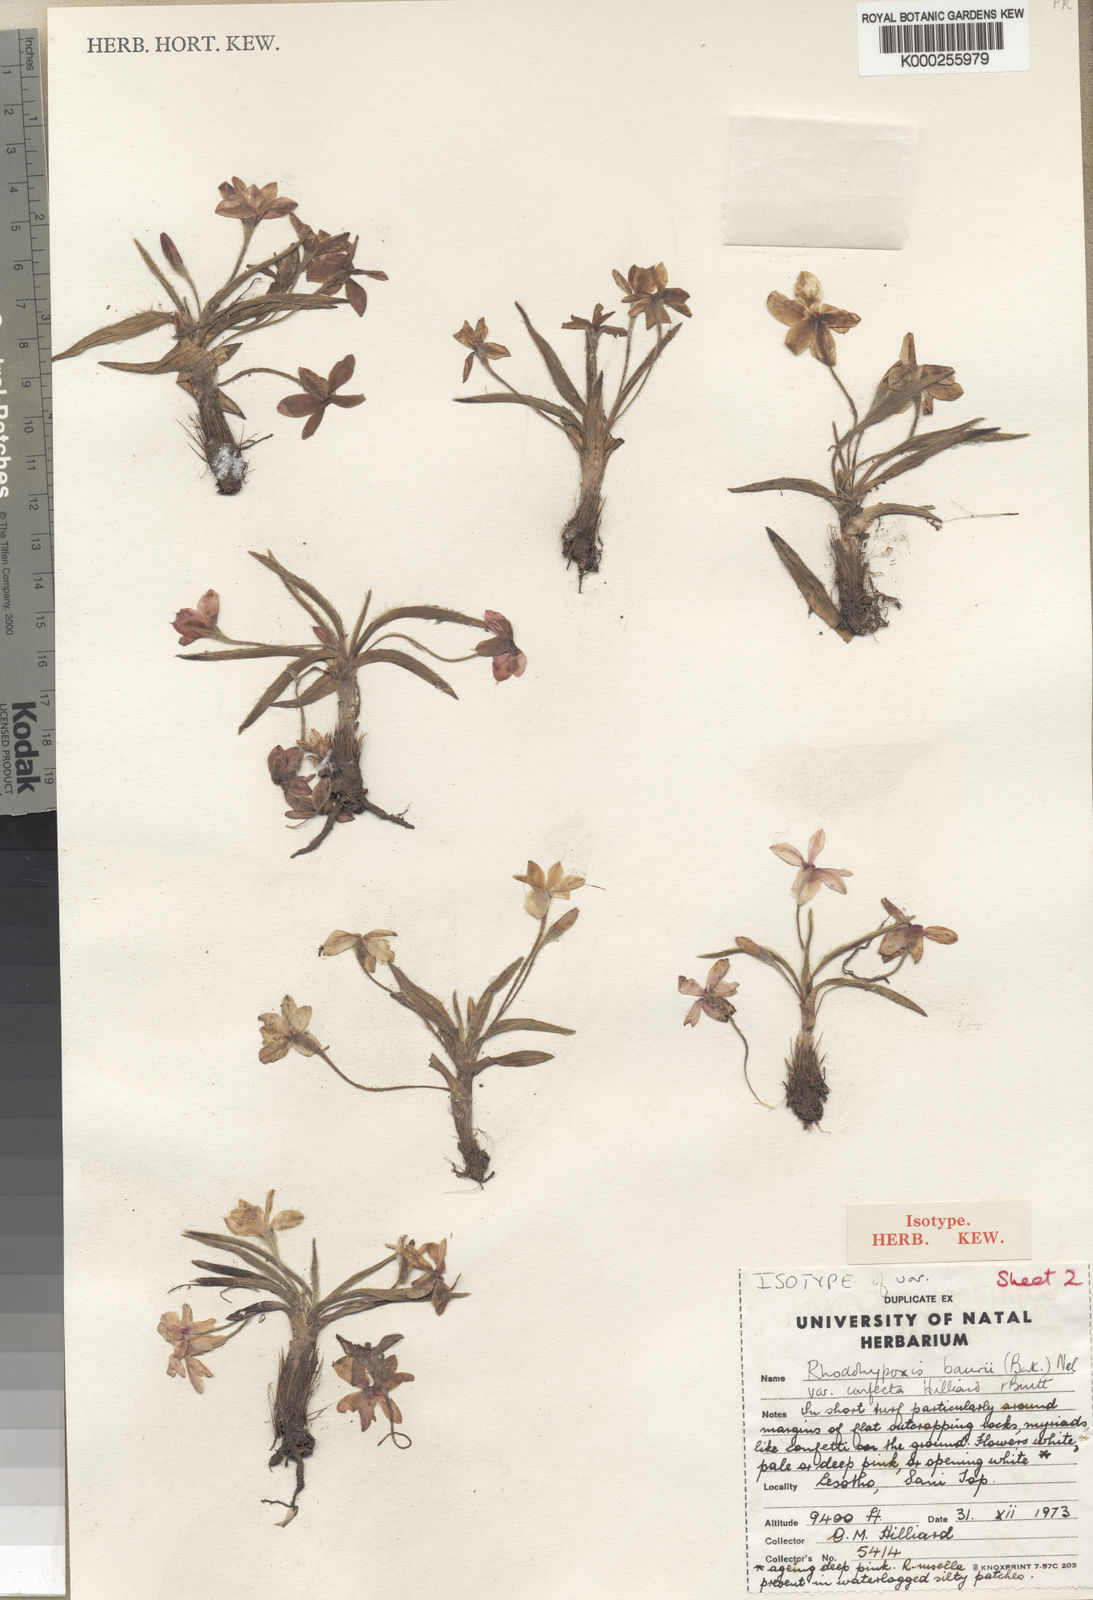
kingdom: Plantae
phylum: Tracheophyta
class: Liliopsida
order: Asparagales
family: Hypoxidaceae
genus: Hypoxis
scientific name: Hypoxis baurii
